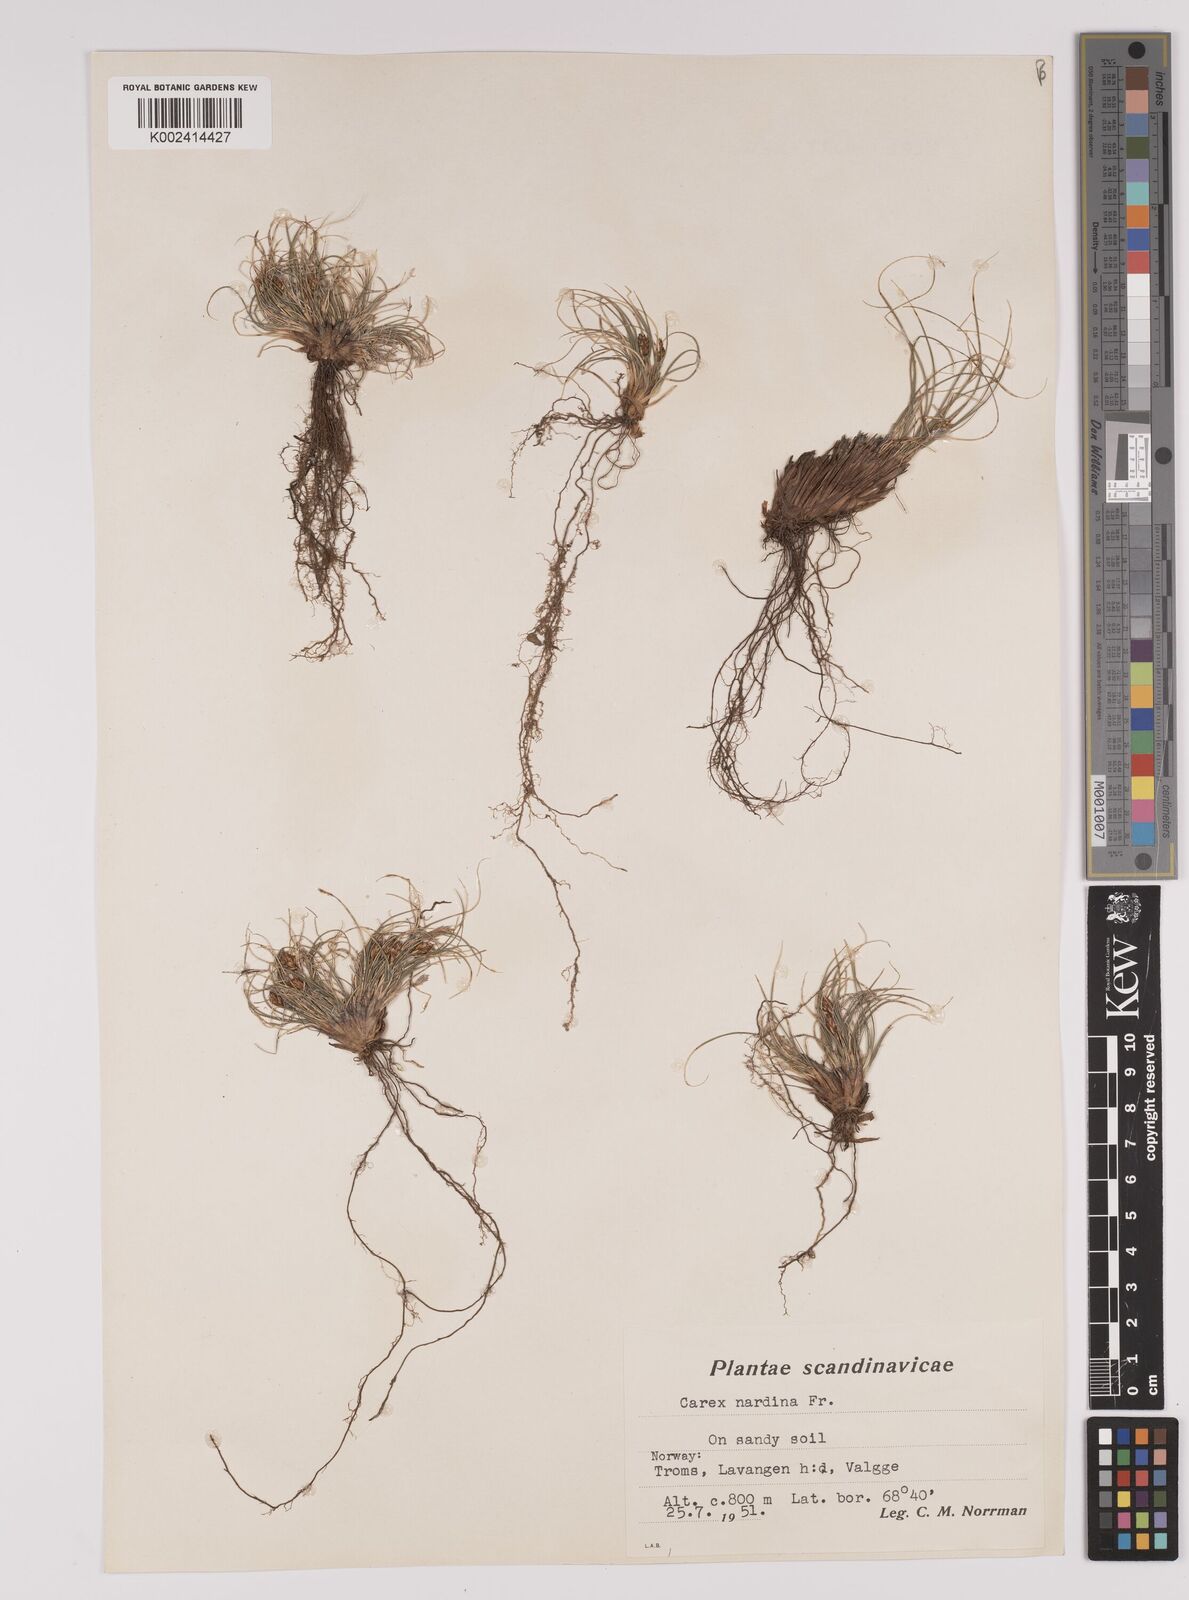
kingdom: Plantae
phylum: Tracheophyta
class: Liliopsida
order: Poales
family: Cyperaceae
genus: Carex
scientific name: Carex nardina
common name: Nard sedge
